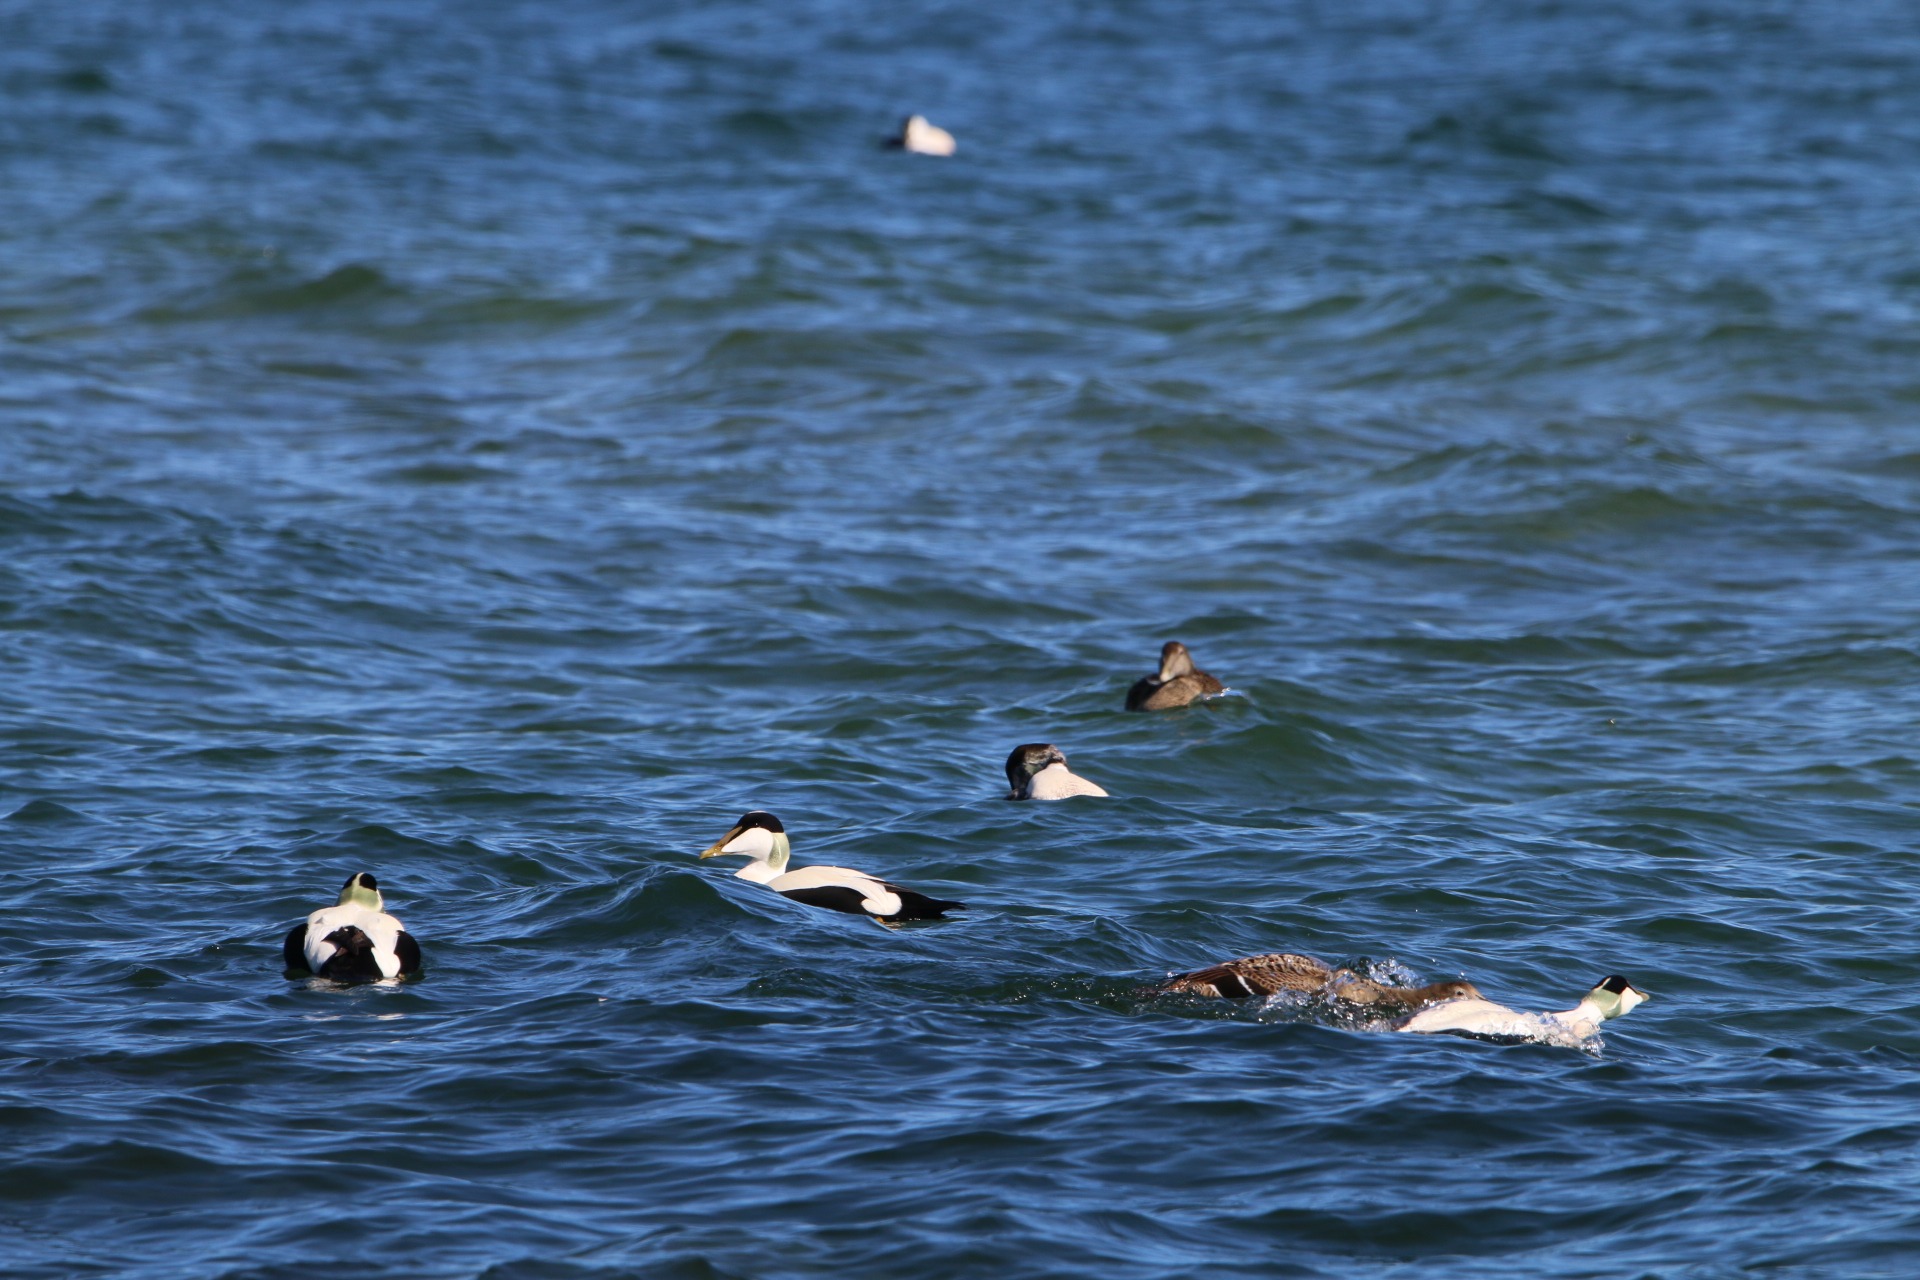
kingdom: Animalia
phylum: Chordata
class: Aves
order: Anseriformes
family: Anatidae
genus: Somateria
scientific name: Somateria mollissima
